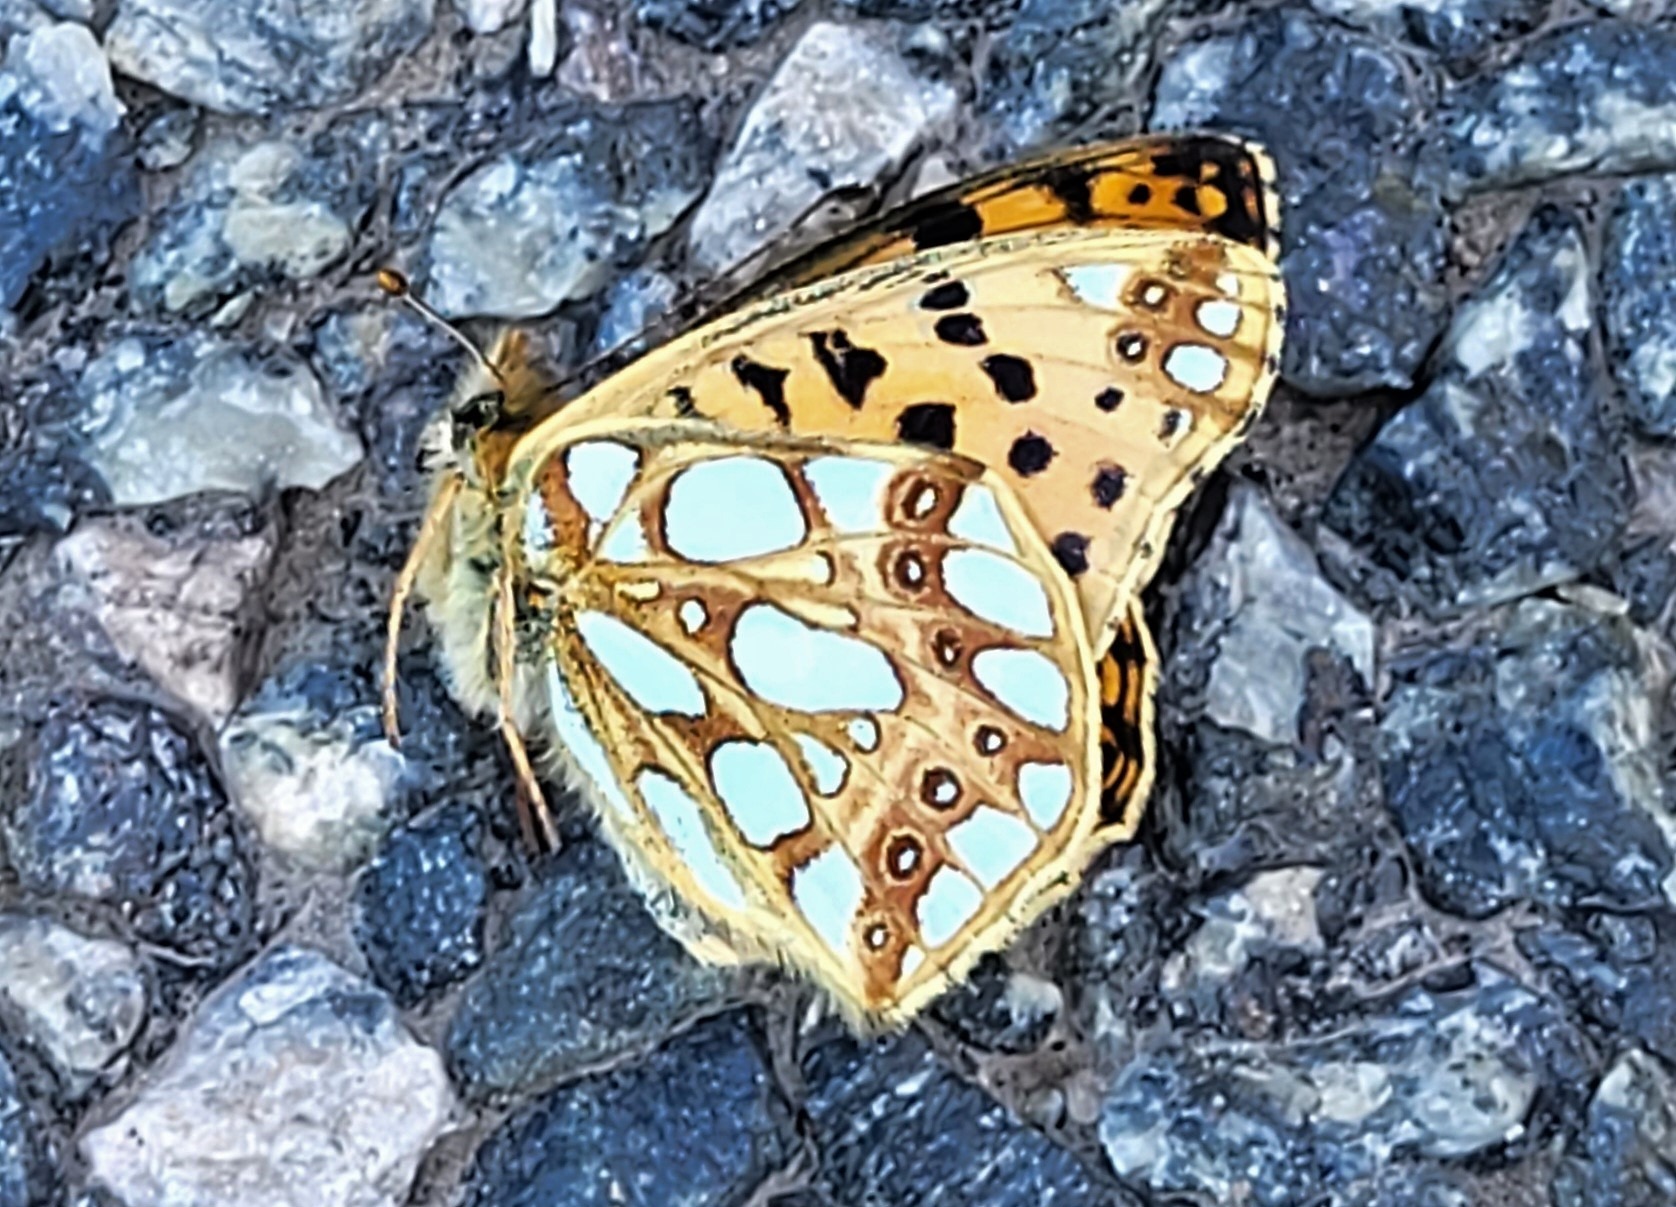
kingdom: Animalia
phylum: Arthropoda
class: Insecta
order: Lepidoptera
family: Nymphalidae
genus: Issoria
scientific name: Issoria lathonia
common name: Storplettet perlemorsommerfugl
